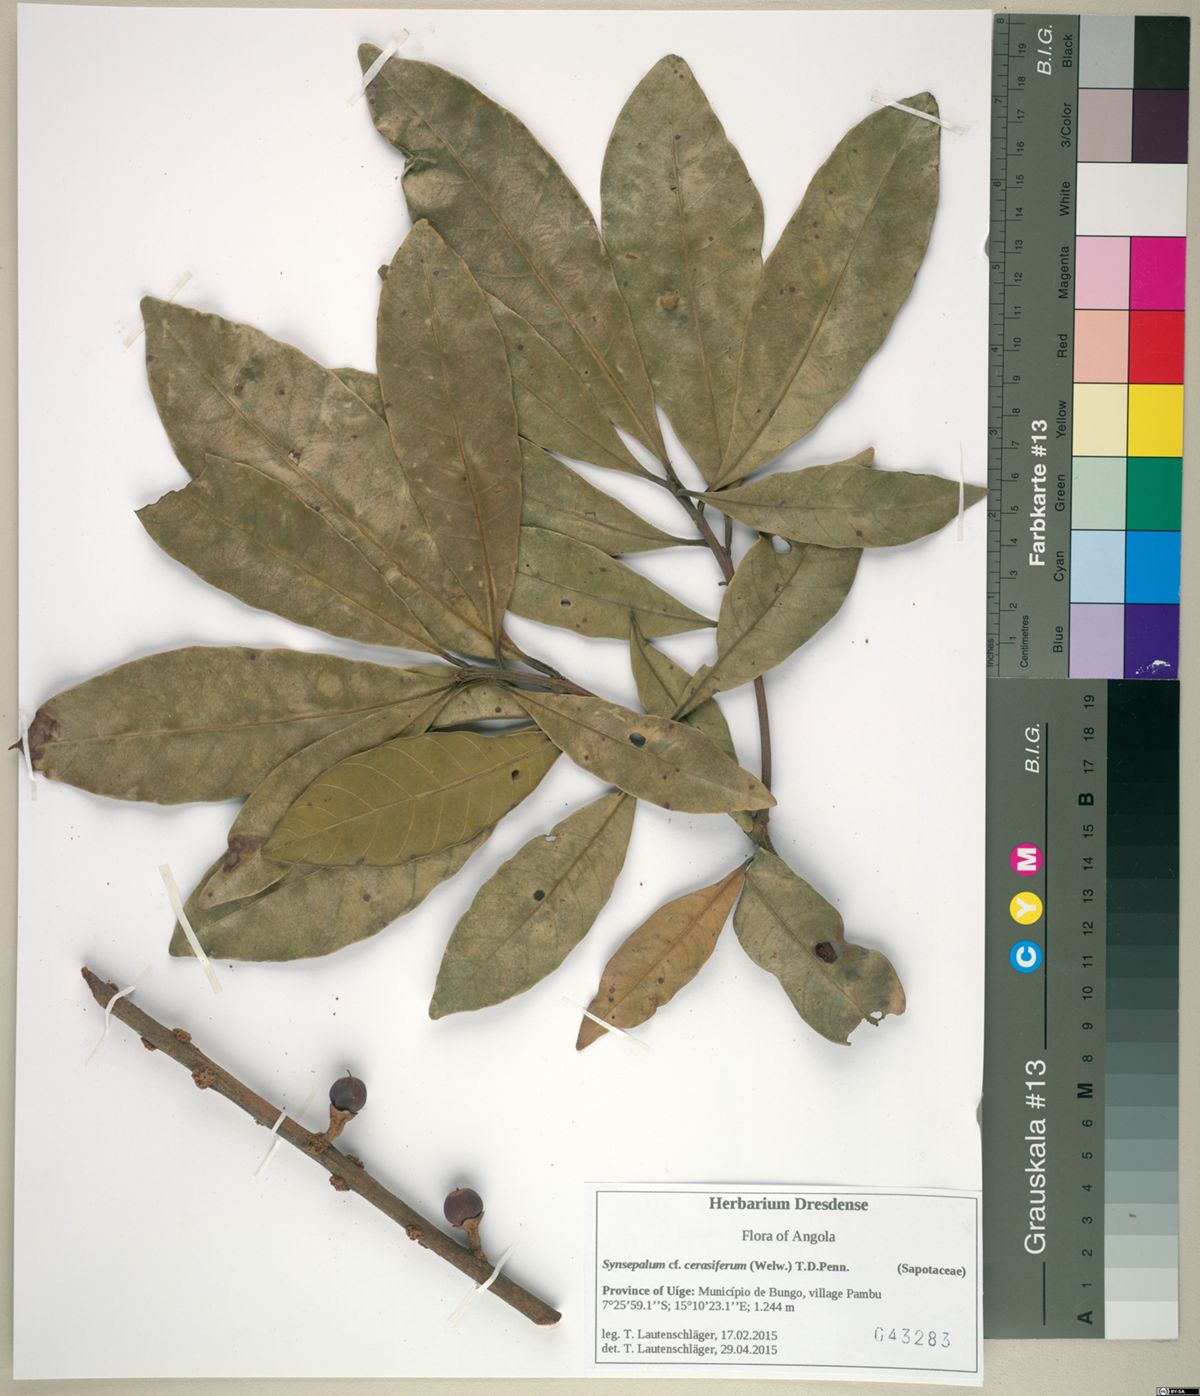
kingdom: Plantae
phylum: Tracheophyta
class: Magnoliopsida
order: Ericales
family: Sapotaceae
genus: Synsepalum
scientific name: Synsepalum cerasiferum
